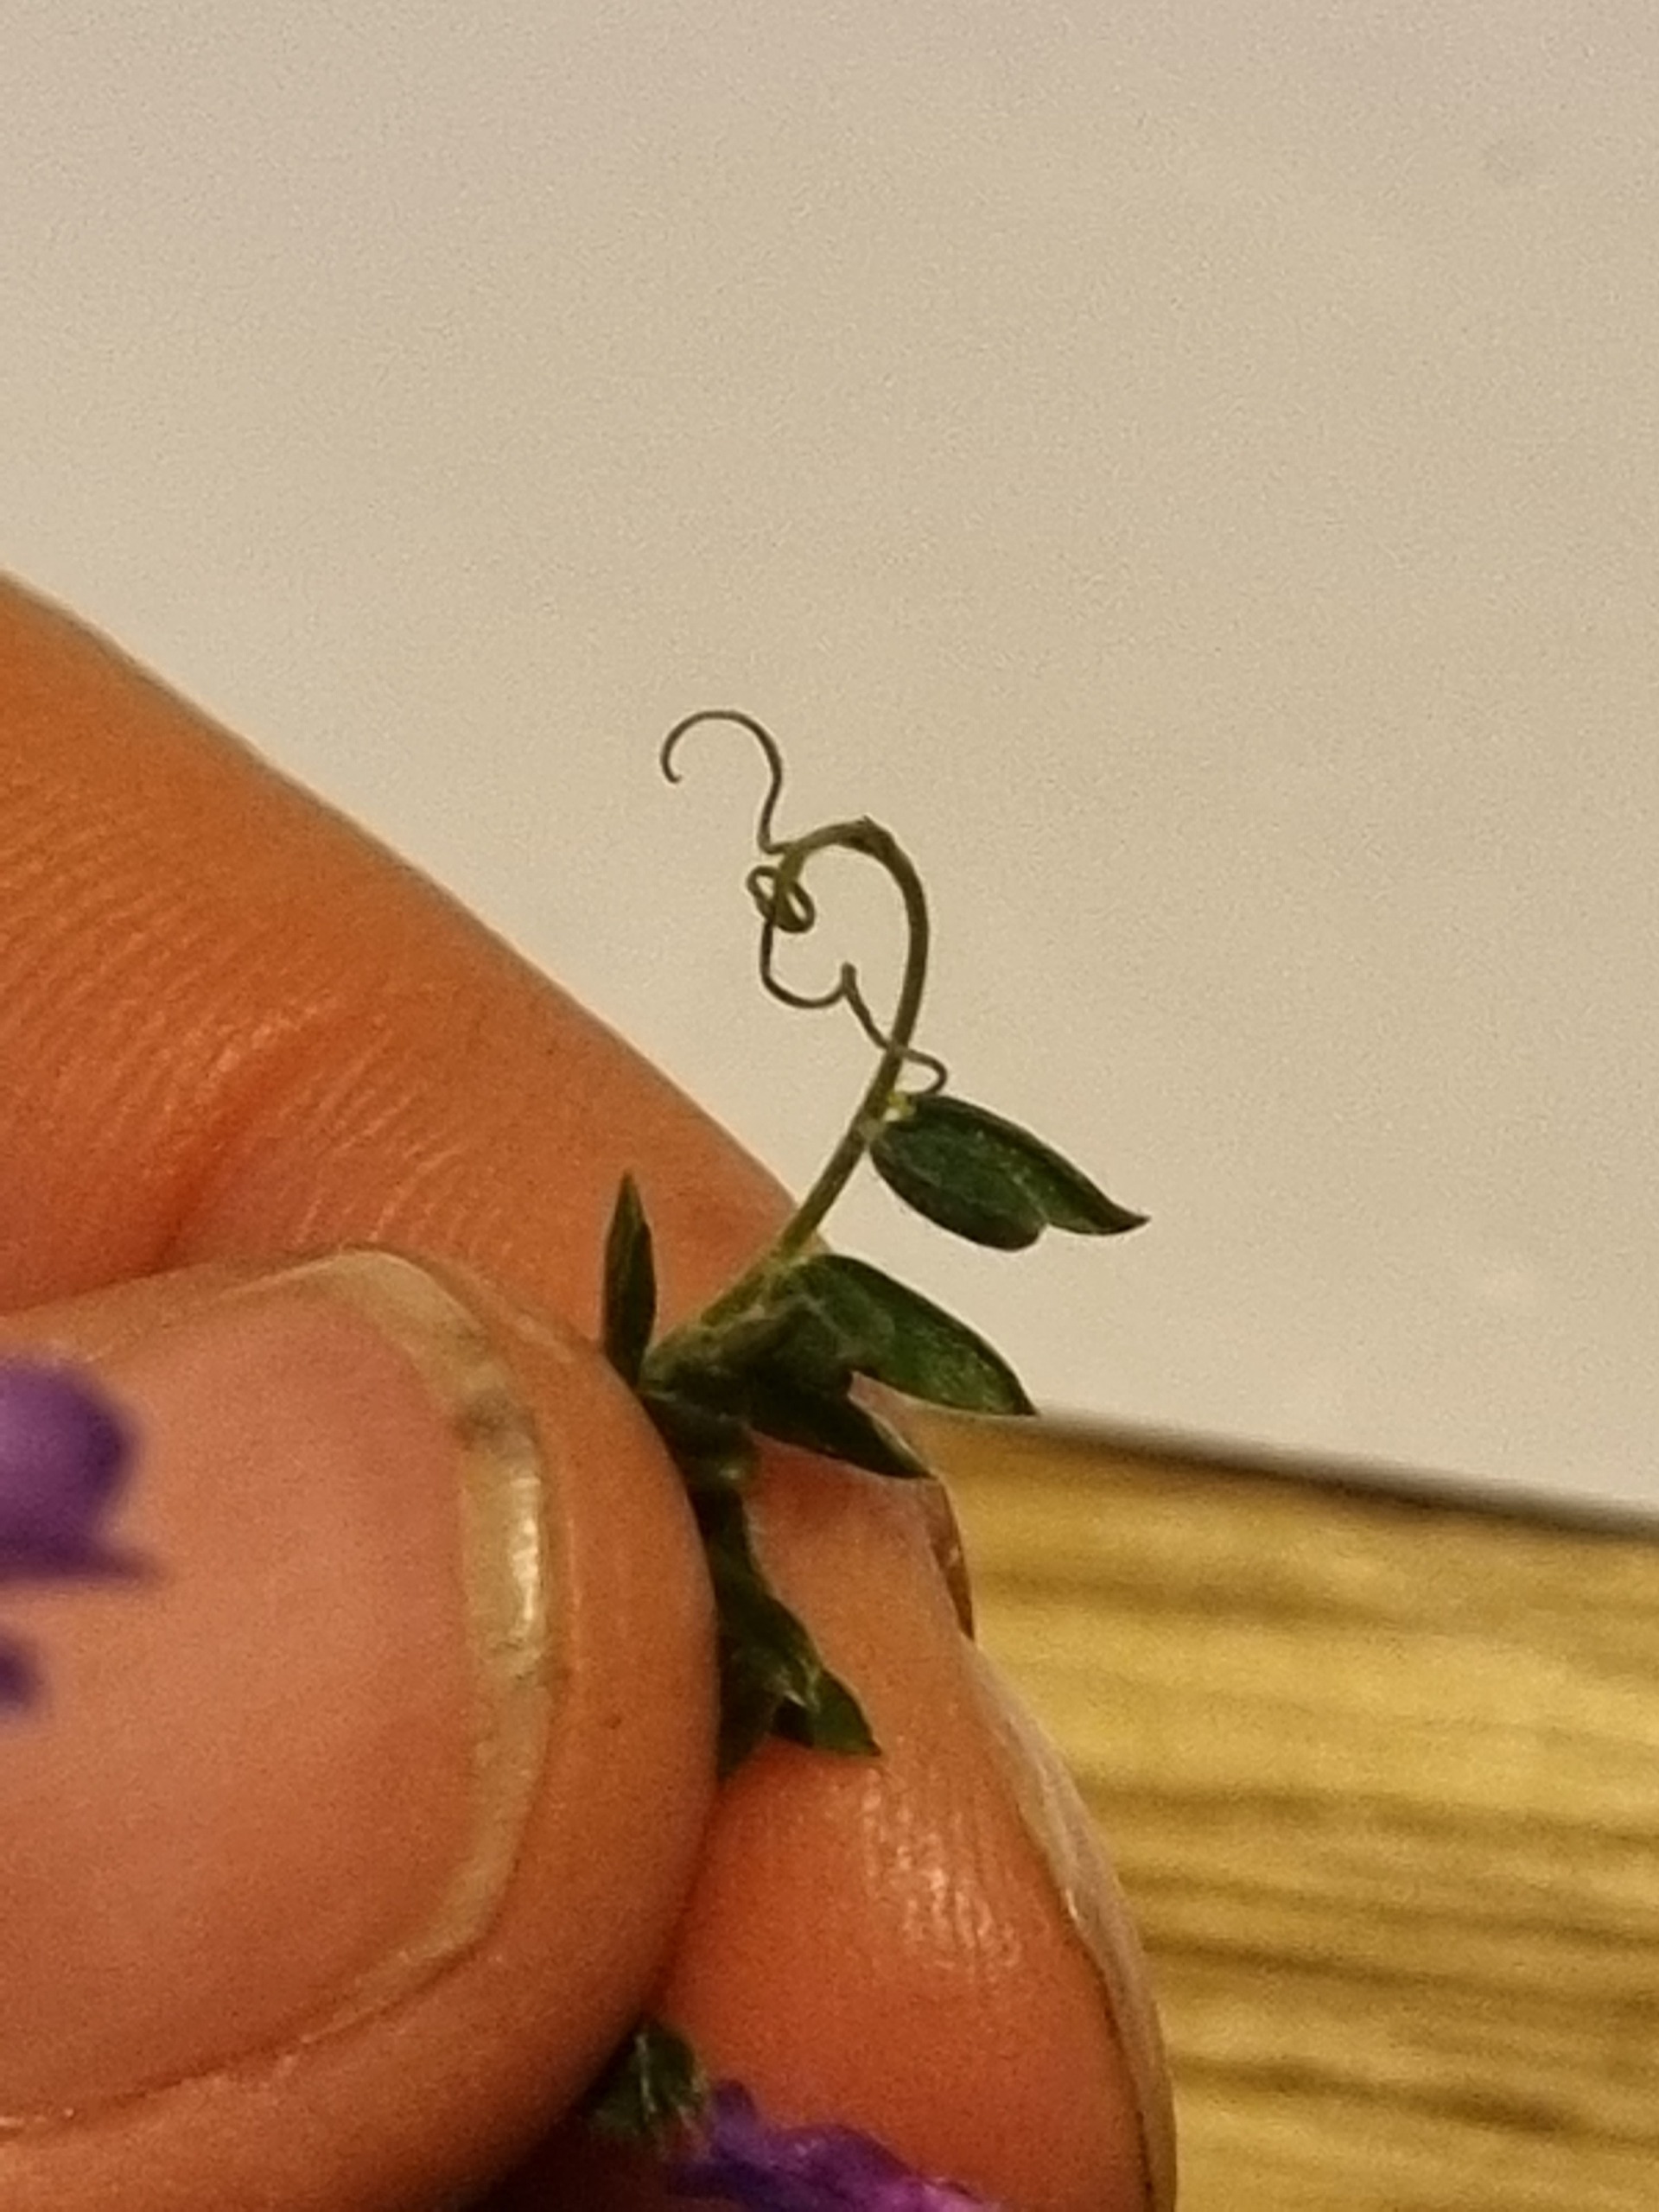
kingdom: Plantae
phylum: Tracheophyta
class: Magnoliopsida
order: Fabales
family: Fabaceae
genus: Vicia
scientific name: Vicia cracca
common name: Muse-vikke
